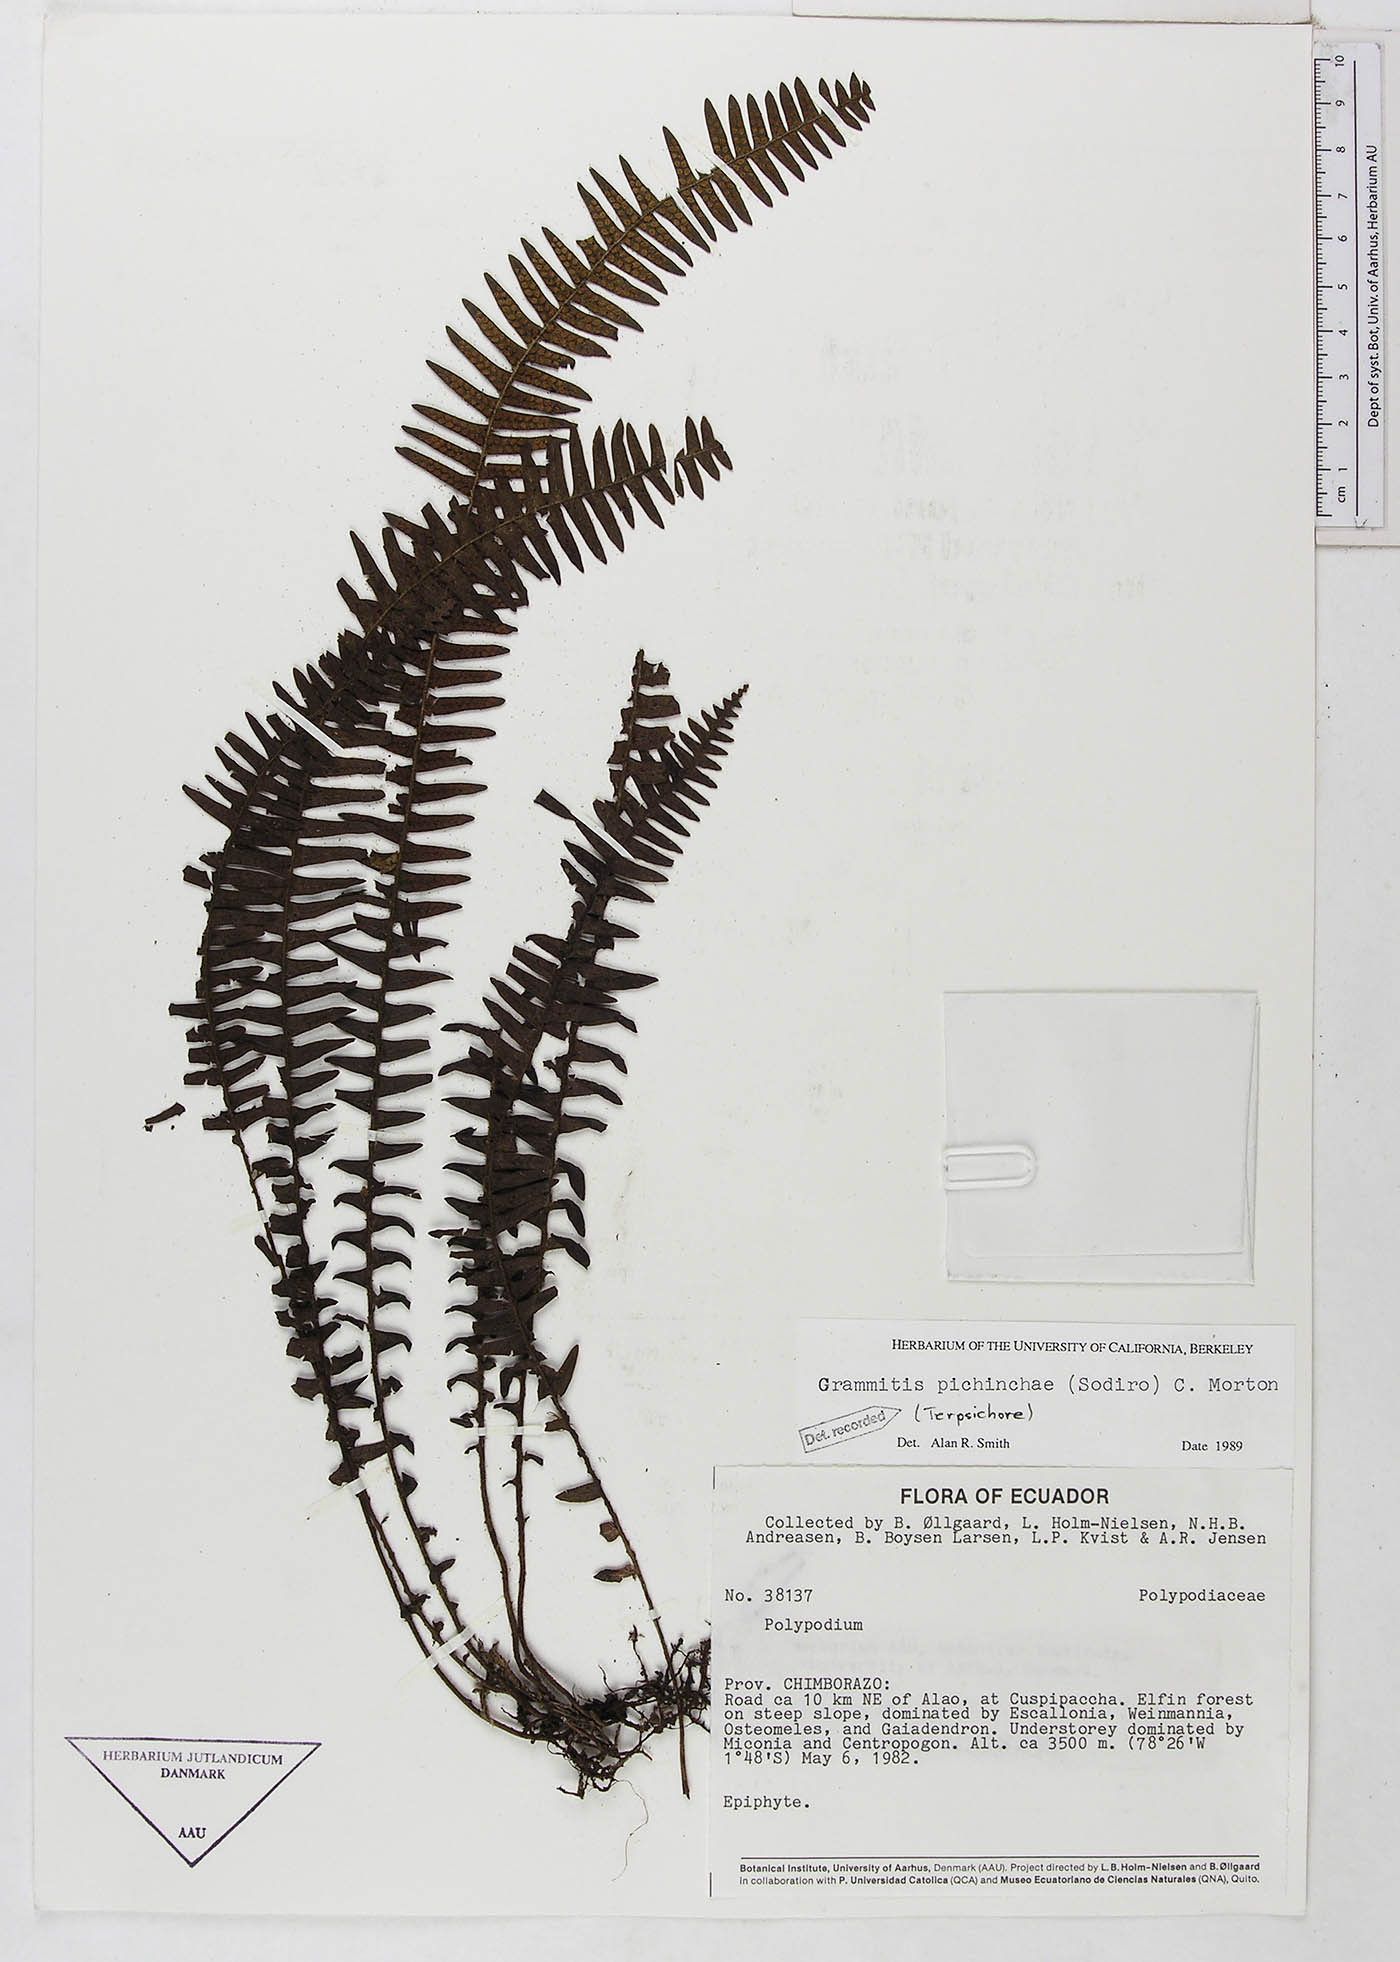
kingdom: Plantae
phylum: Tracheophyta
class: Polypodiopsida
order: Polypodiales
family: Polypodiaceae
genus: Ascogrammitis
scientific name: Ascogrammitis pichinchae
